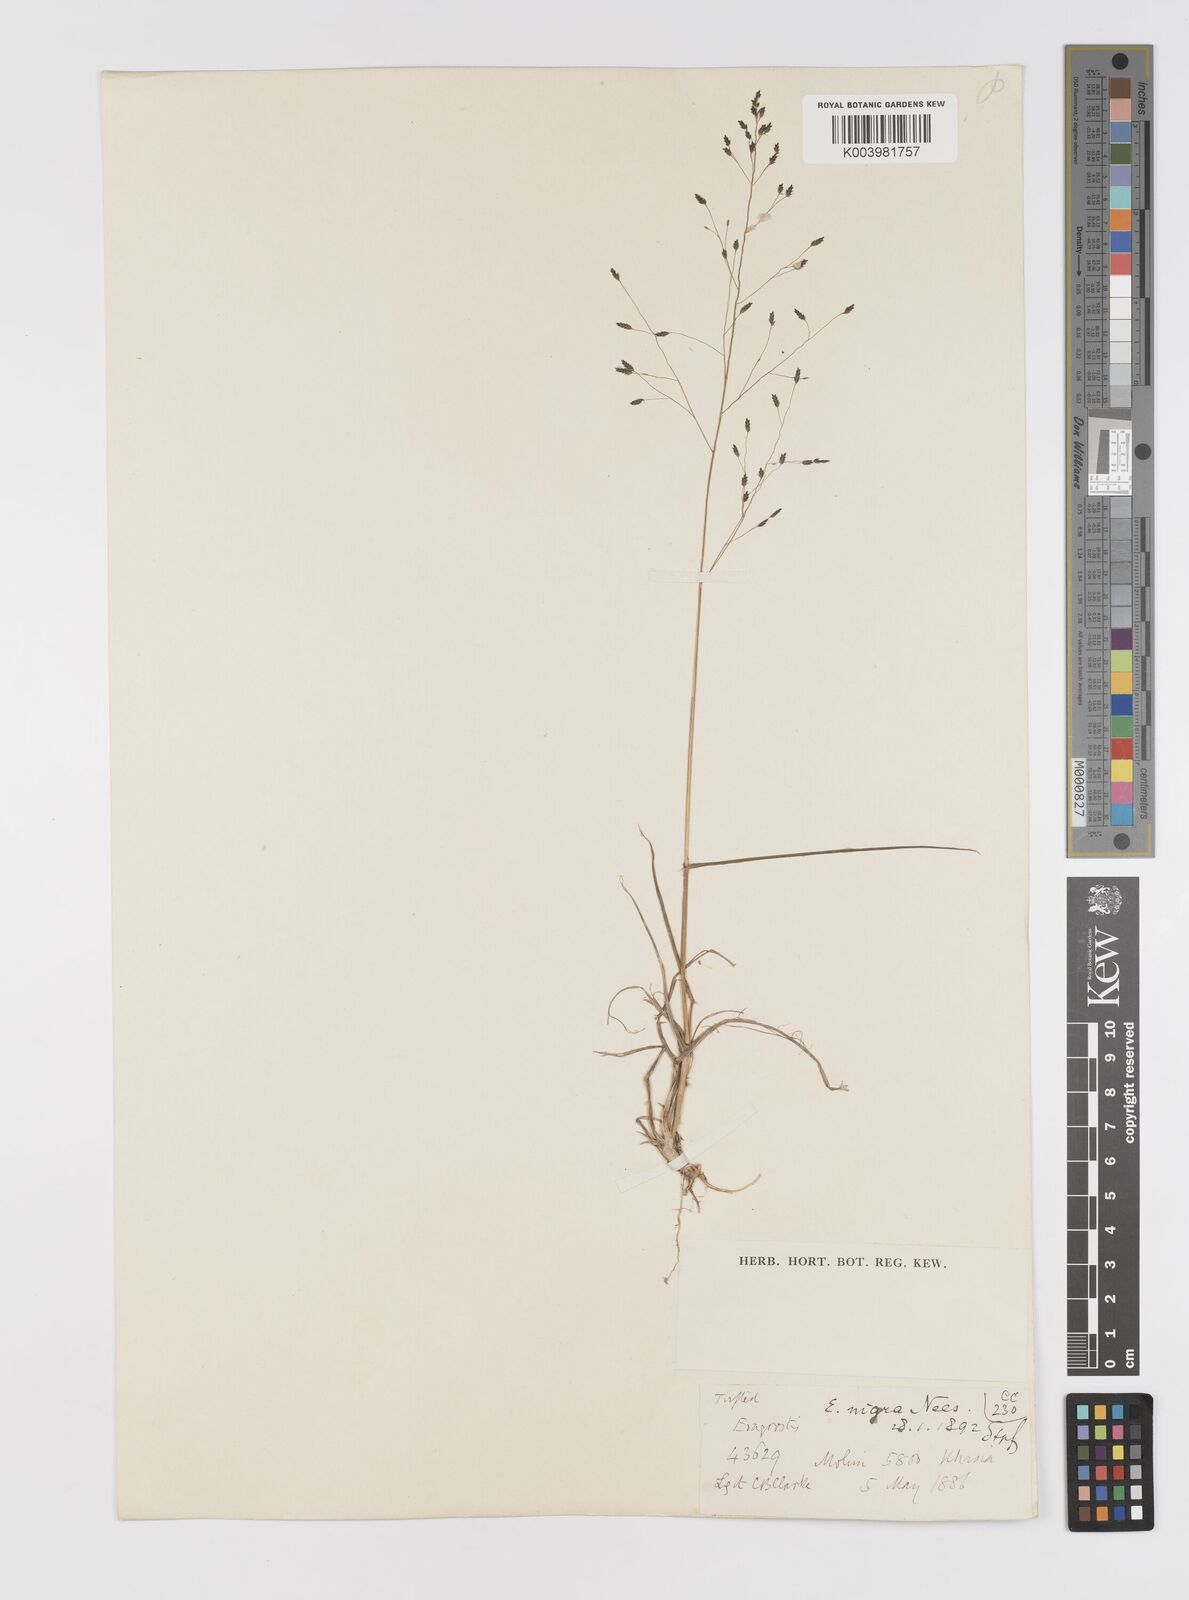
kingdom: Plantae
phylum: Tracheophyta
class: Liliopsida
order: Poales
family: Poaceae
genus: Eragrostis
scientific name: Eragrostis nigra
